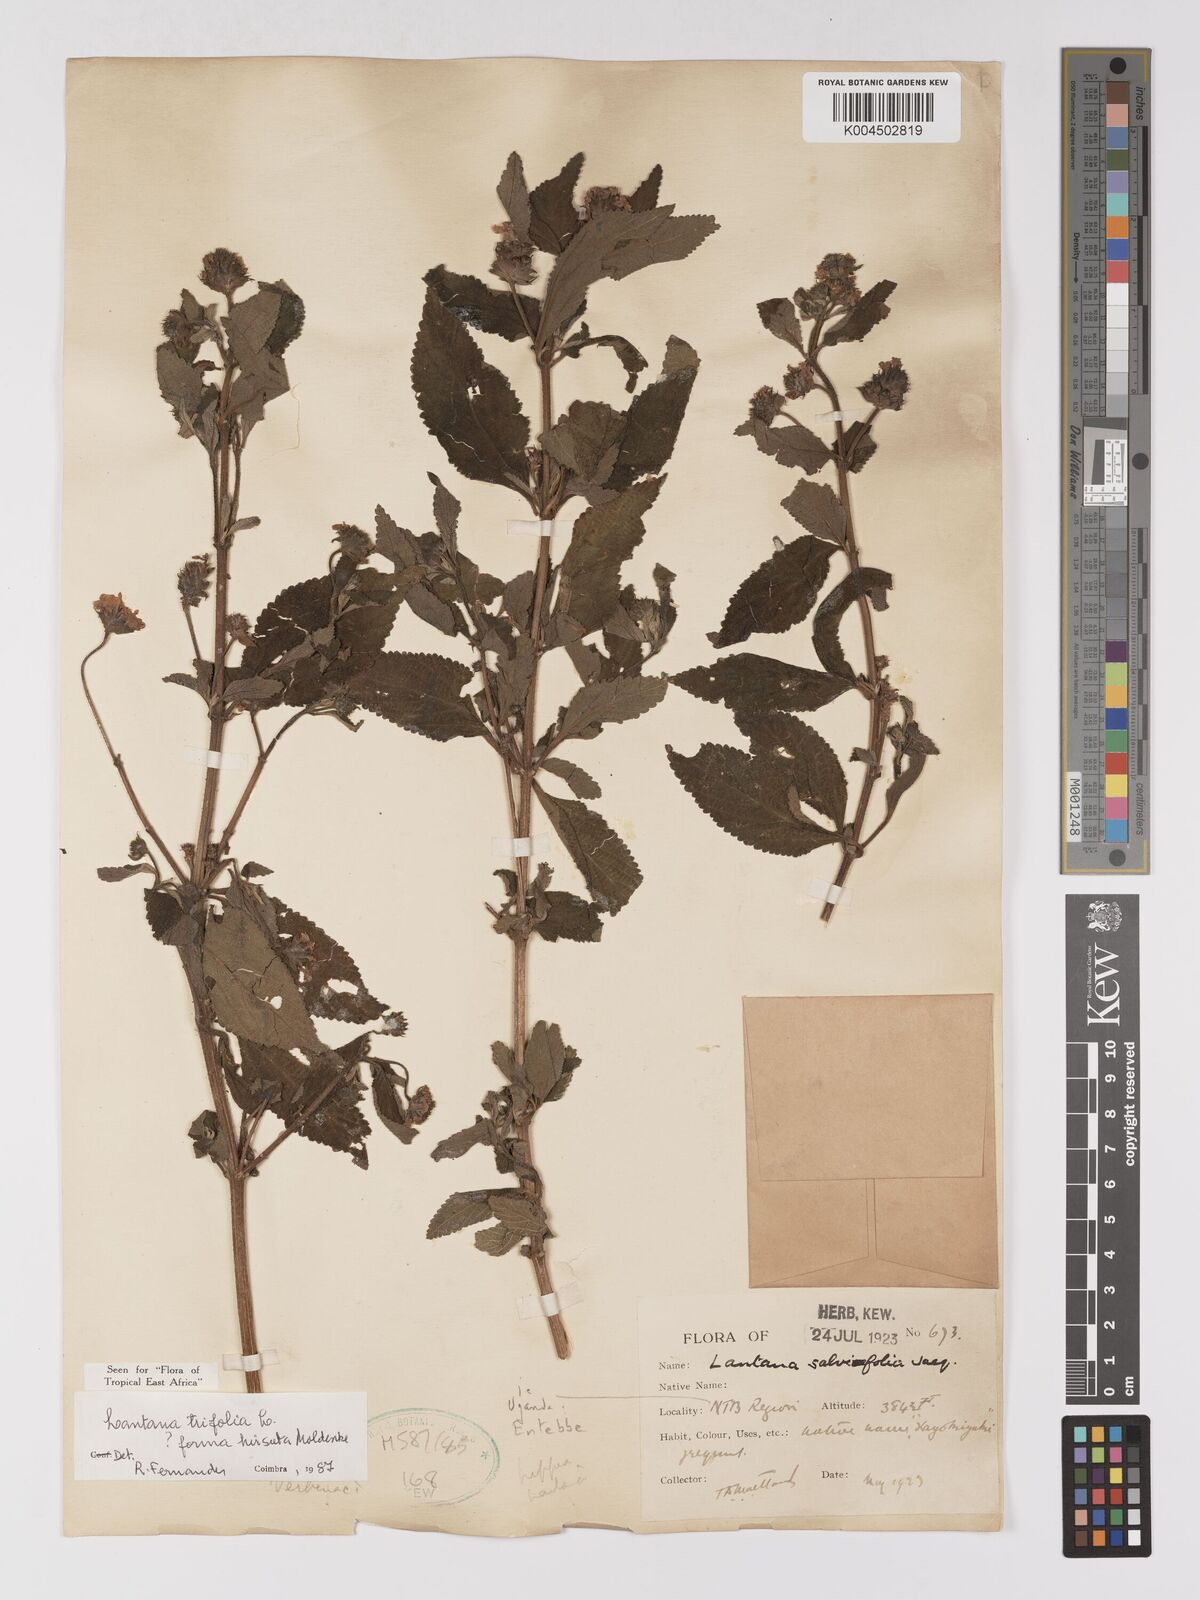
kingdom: Plantae
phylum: Tracheophyta
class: Magnoliopsida
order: Lamiales
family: Verbenaceae
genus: Lantana
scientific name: Lantana trifolia
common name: Sweet-sage
